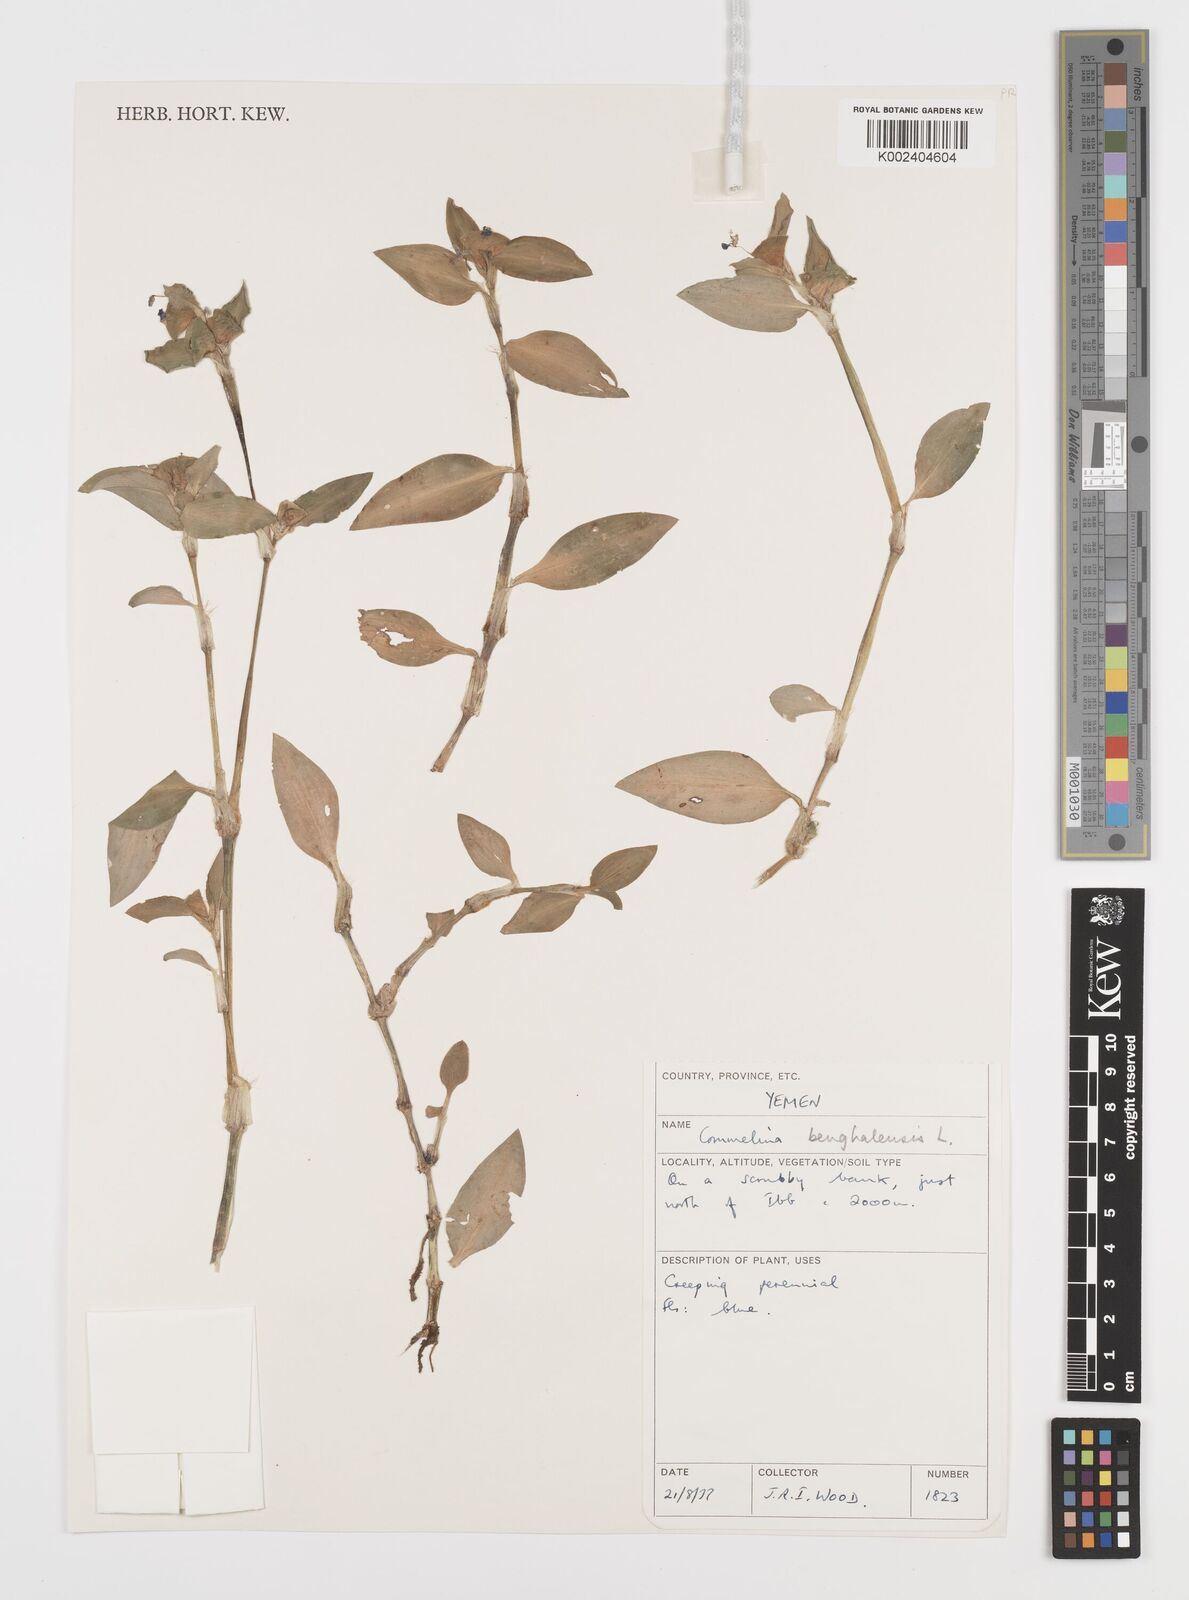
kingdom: Plantae
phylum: Tracheophyta
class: Liliopsida
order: Commelinales
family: Commelinaceae
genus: Commelina
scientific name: Commelina benghalensis
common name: Jio
